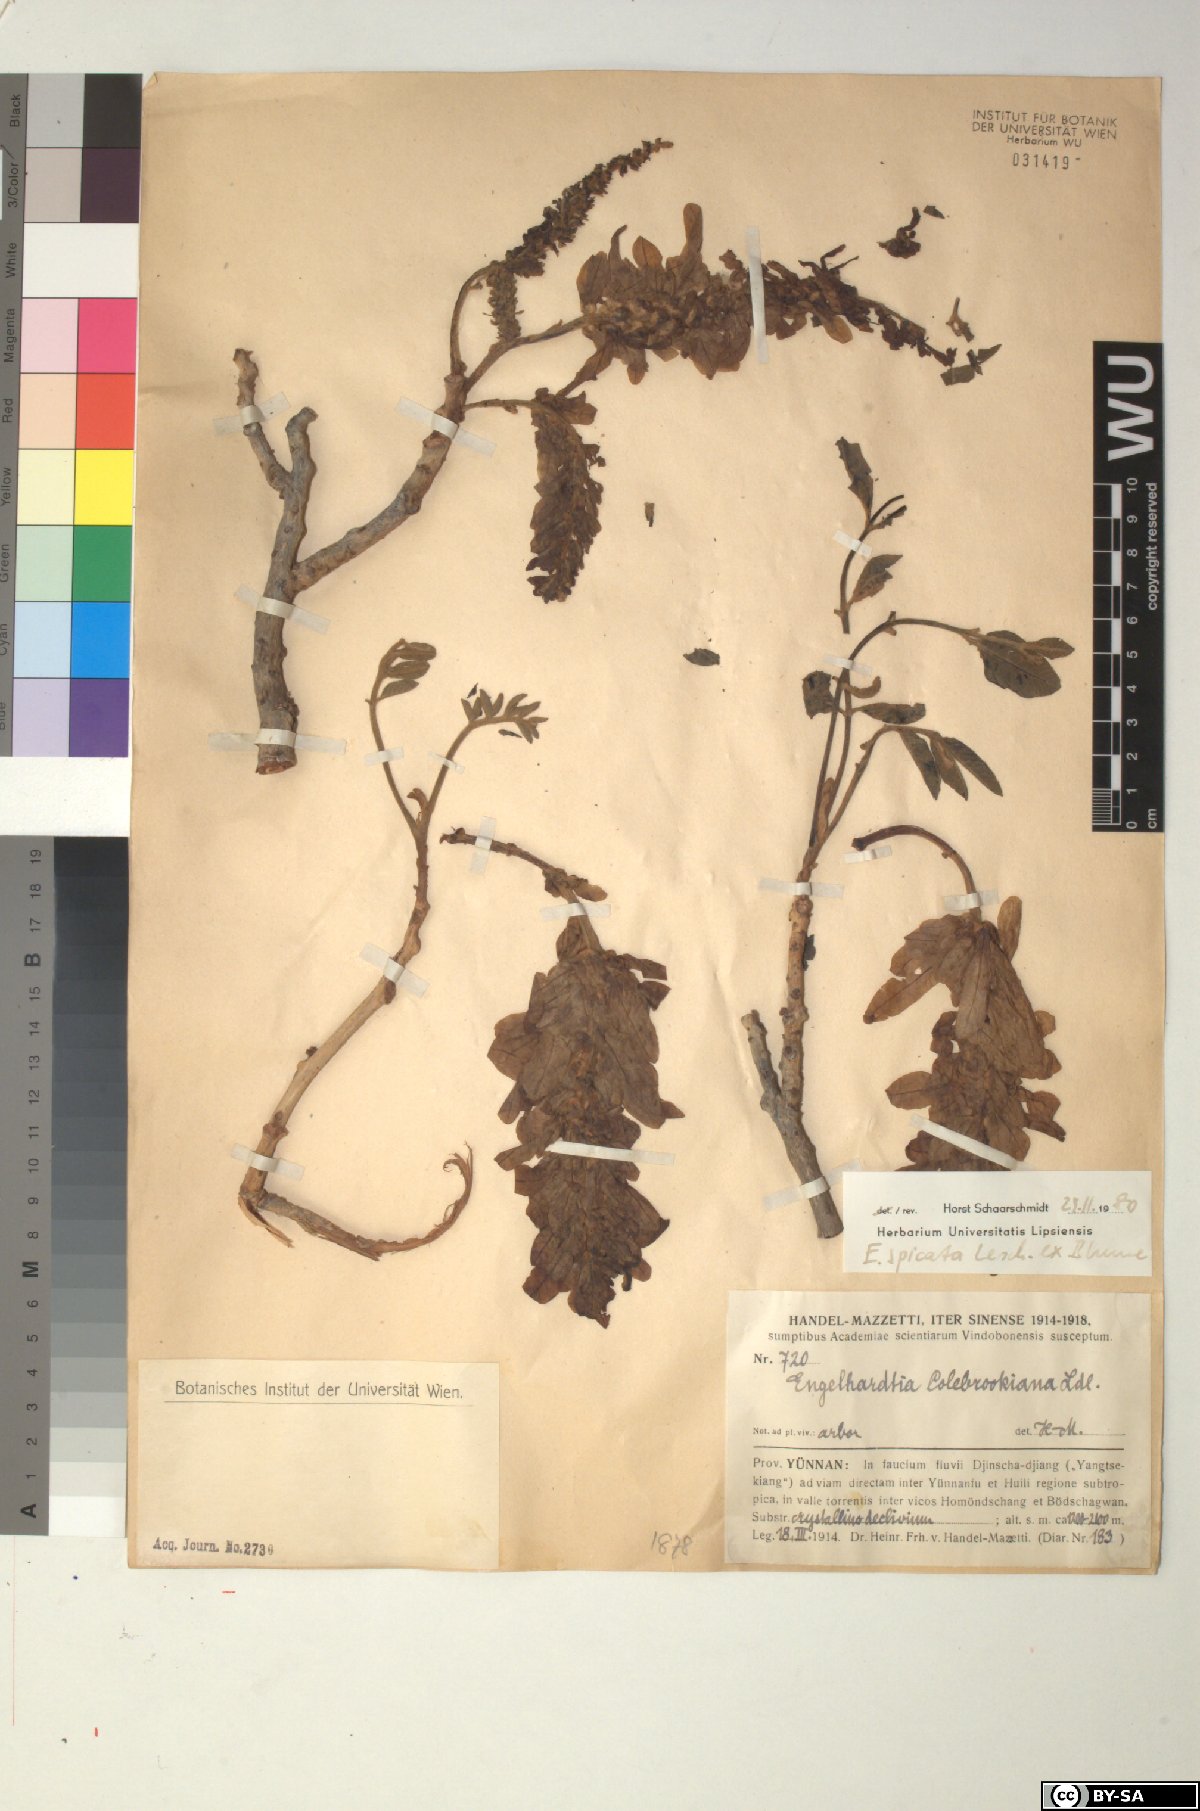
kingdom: Plantae
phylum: Tracheophyta
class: Magnoliopsida
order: Fagales
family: Juglandaceae
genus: Engelhardia
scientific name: Engelhardia spicata
